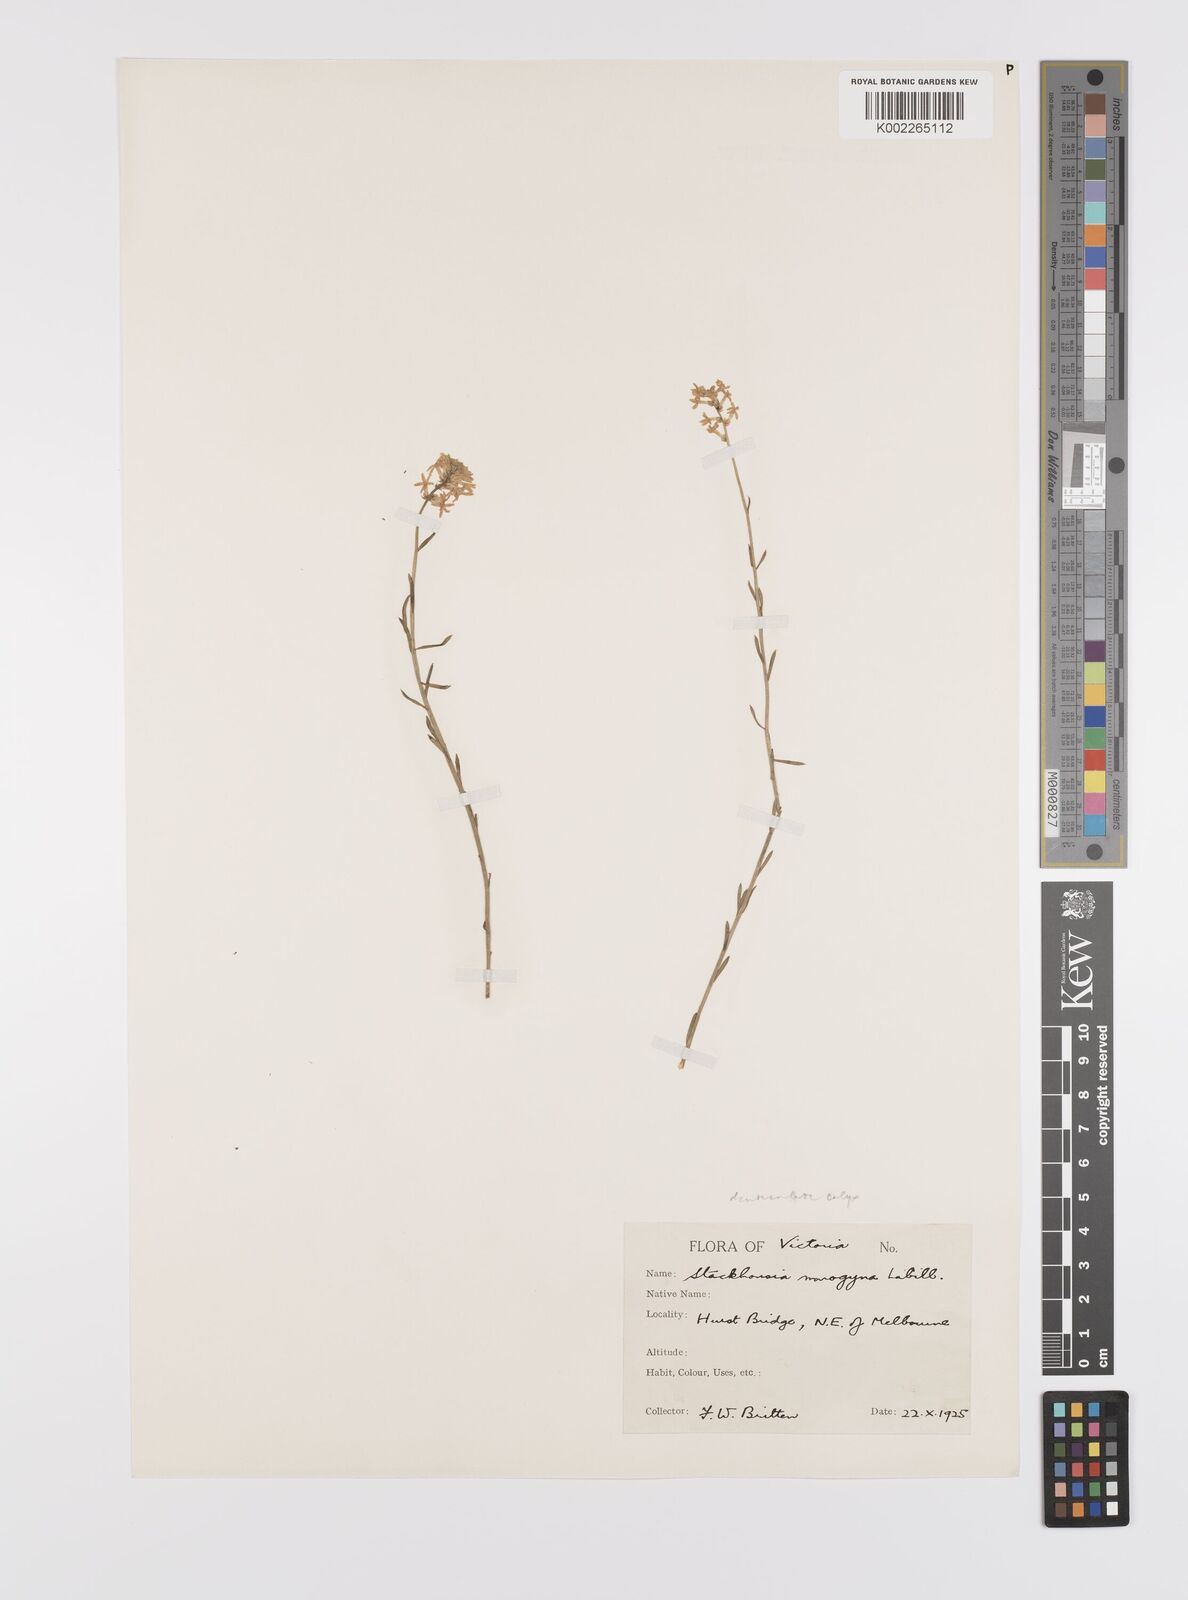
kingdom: Plantae
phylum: Tracheophyta
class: Magnoliopsida
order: Celastrales
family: Celastraceae
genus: Stackhousia
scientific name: Stackhousia monogyna
